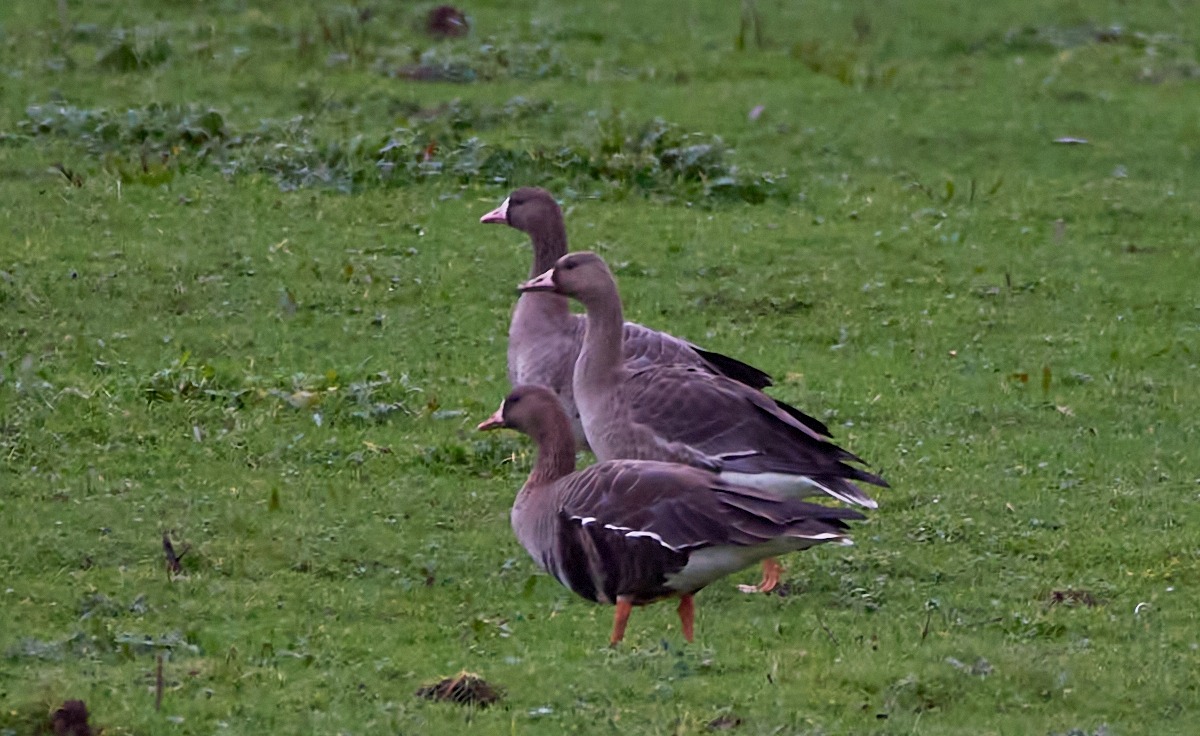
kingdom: Animalia
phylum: Chordata
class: Aves
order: Anseriformes
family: Anatidae
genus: Anser
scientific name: Anser albifrons
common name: Blisgås
